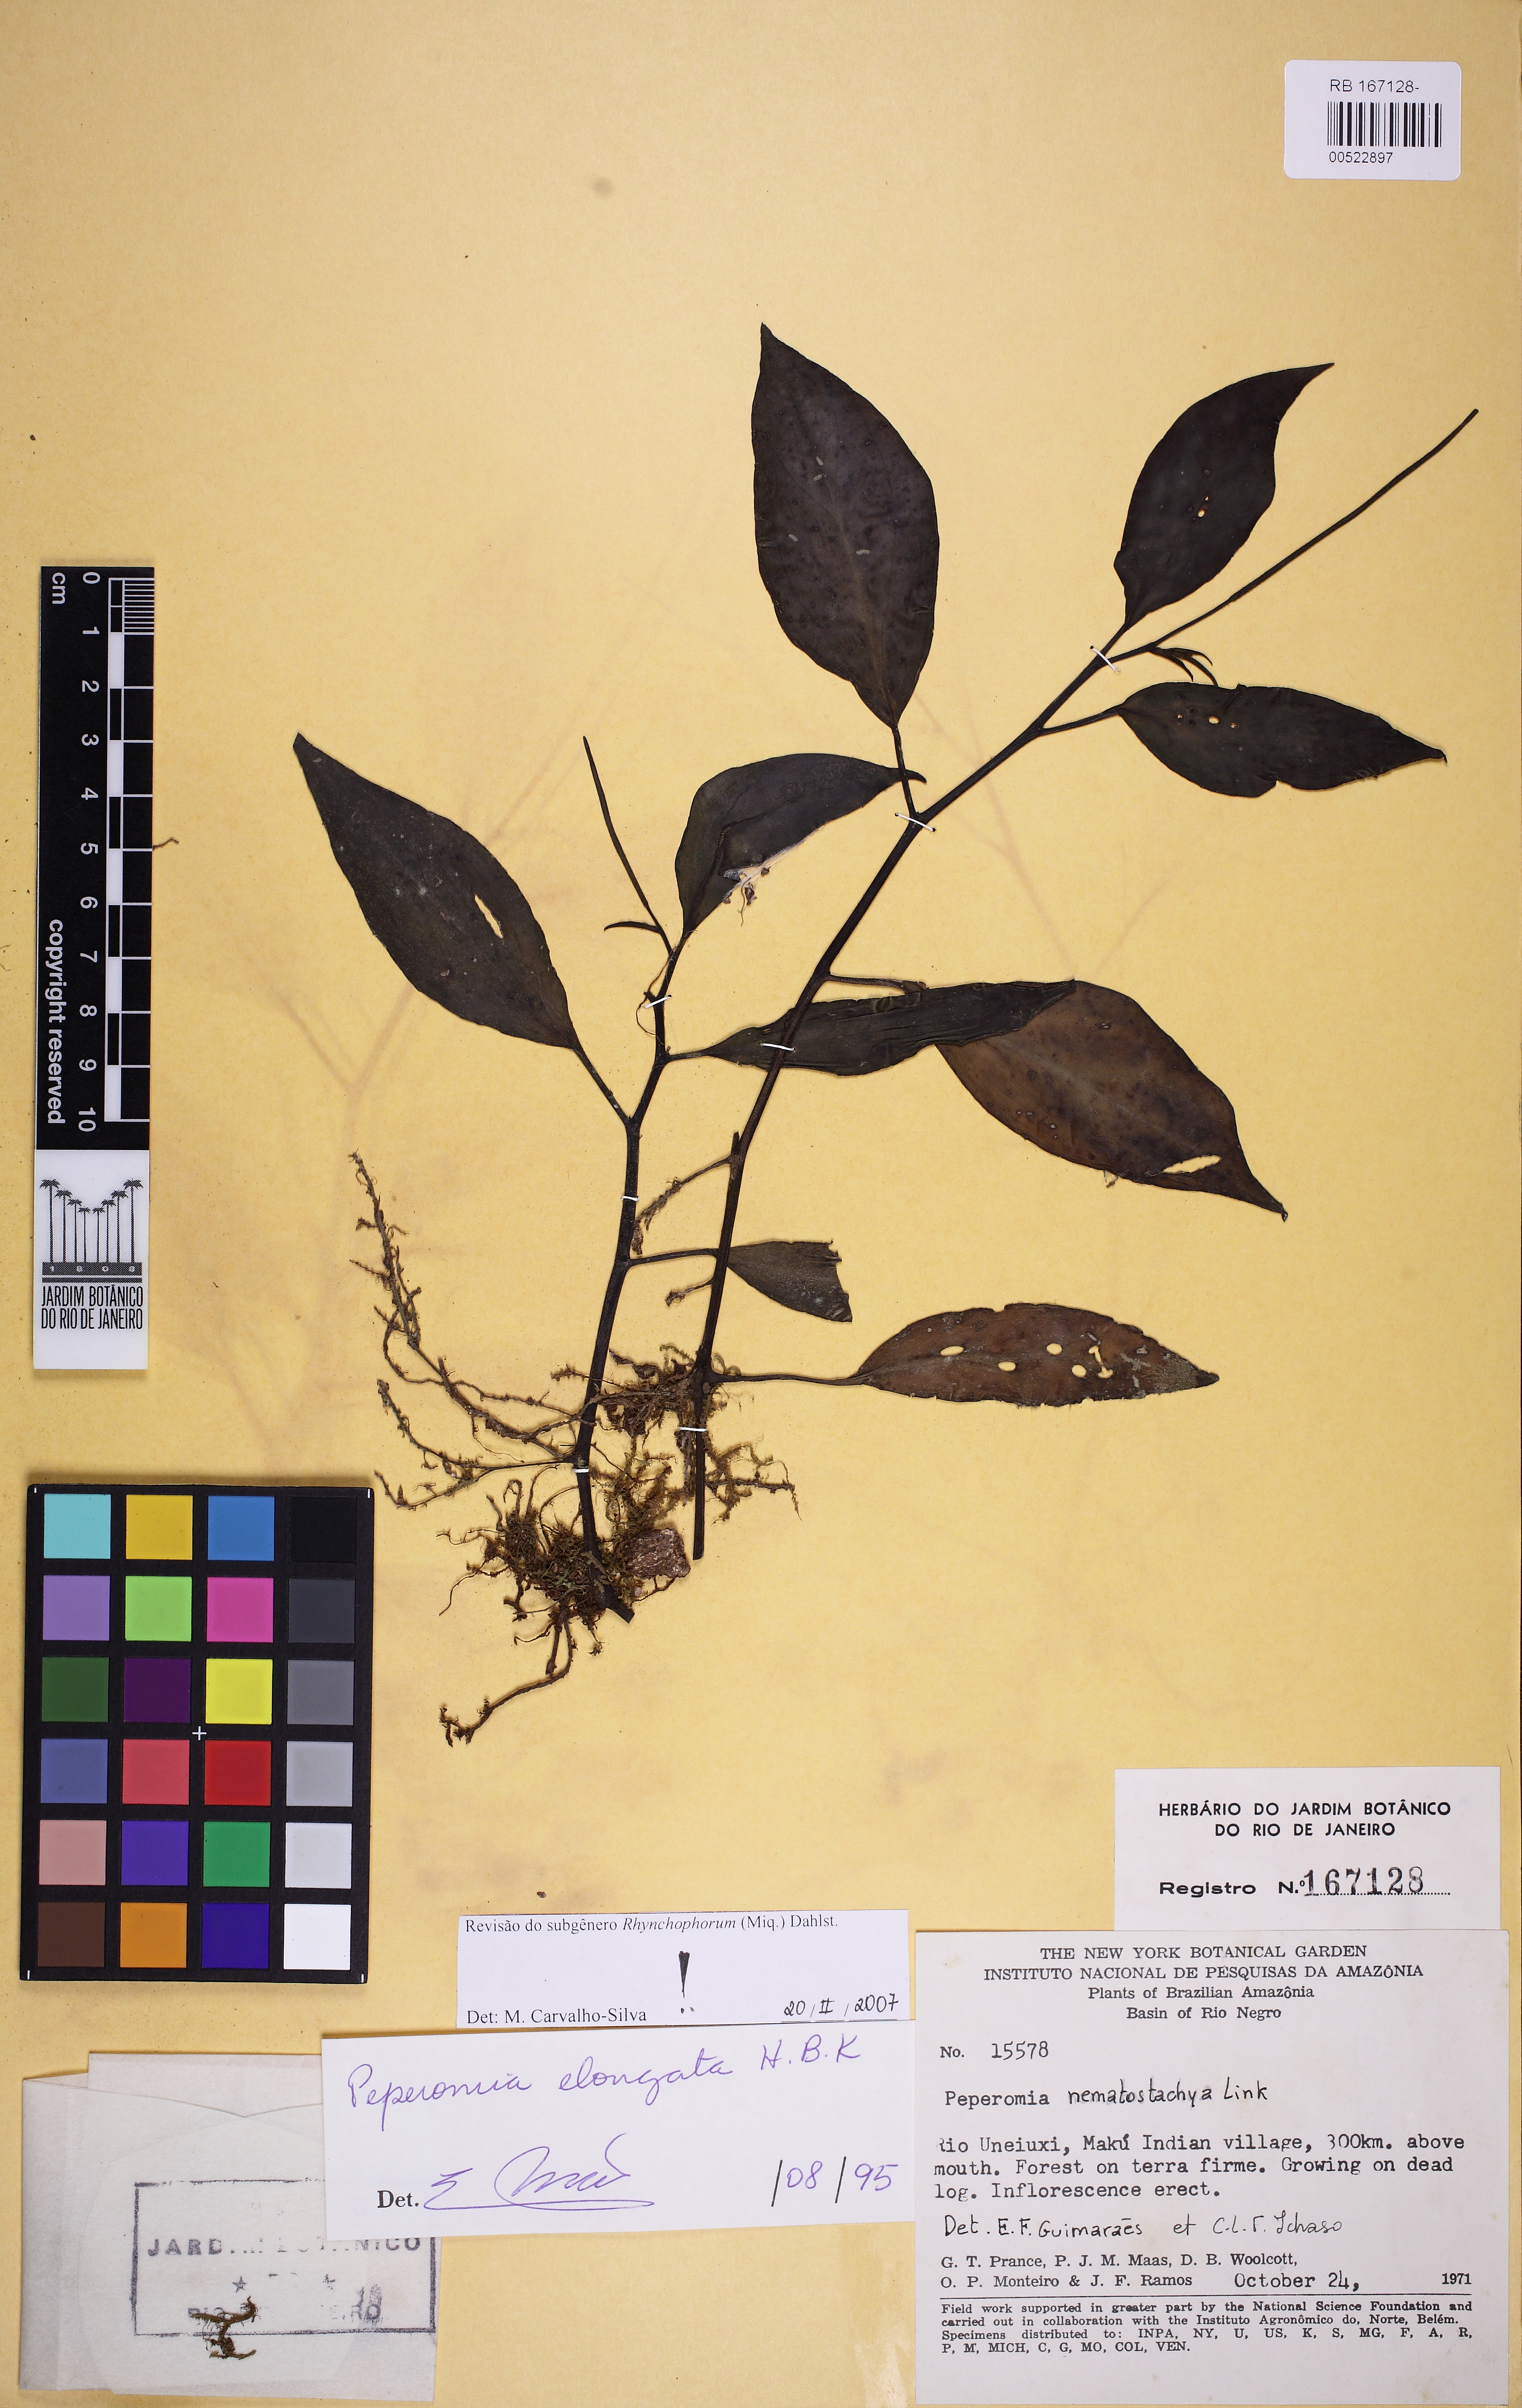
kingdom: Plantae
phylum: Tracheophyta
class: Magnoliopsida
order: Piperales
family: Piperaceae
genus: Peperomia
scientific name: Peperomia elongata
